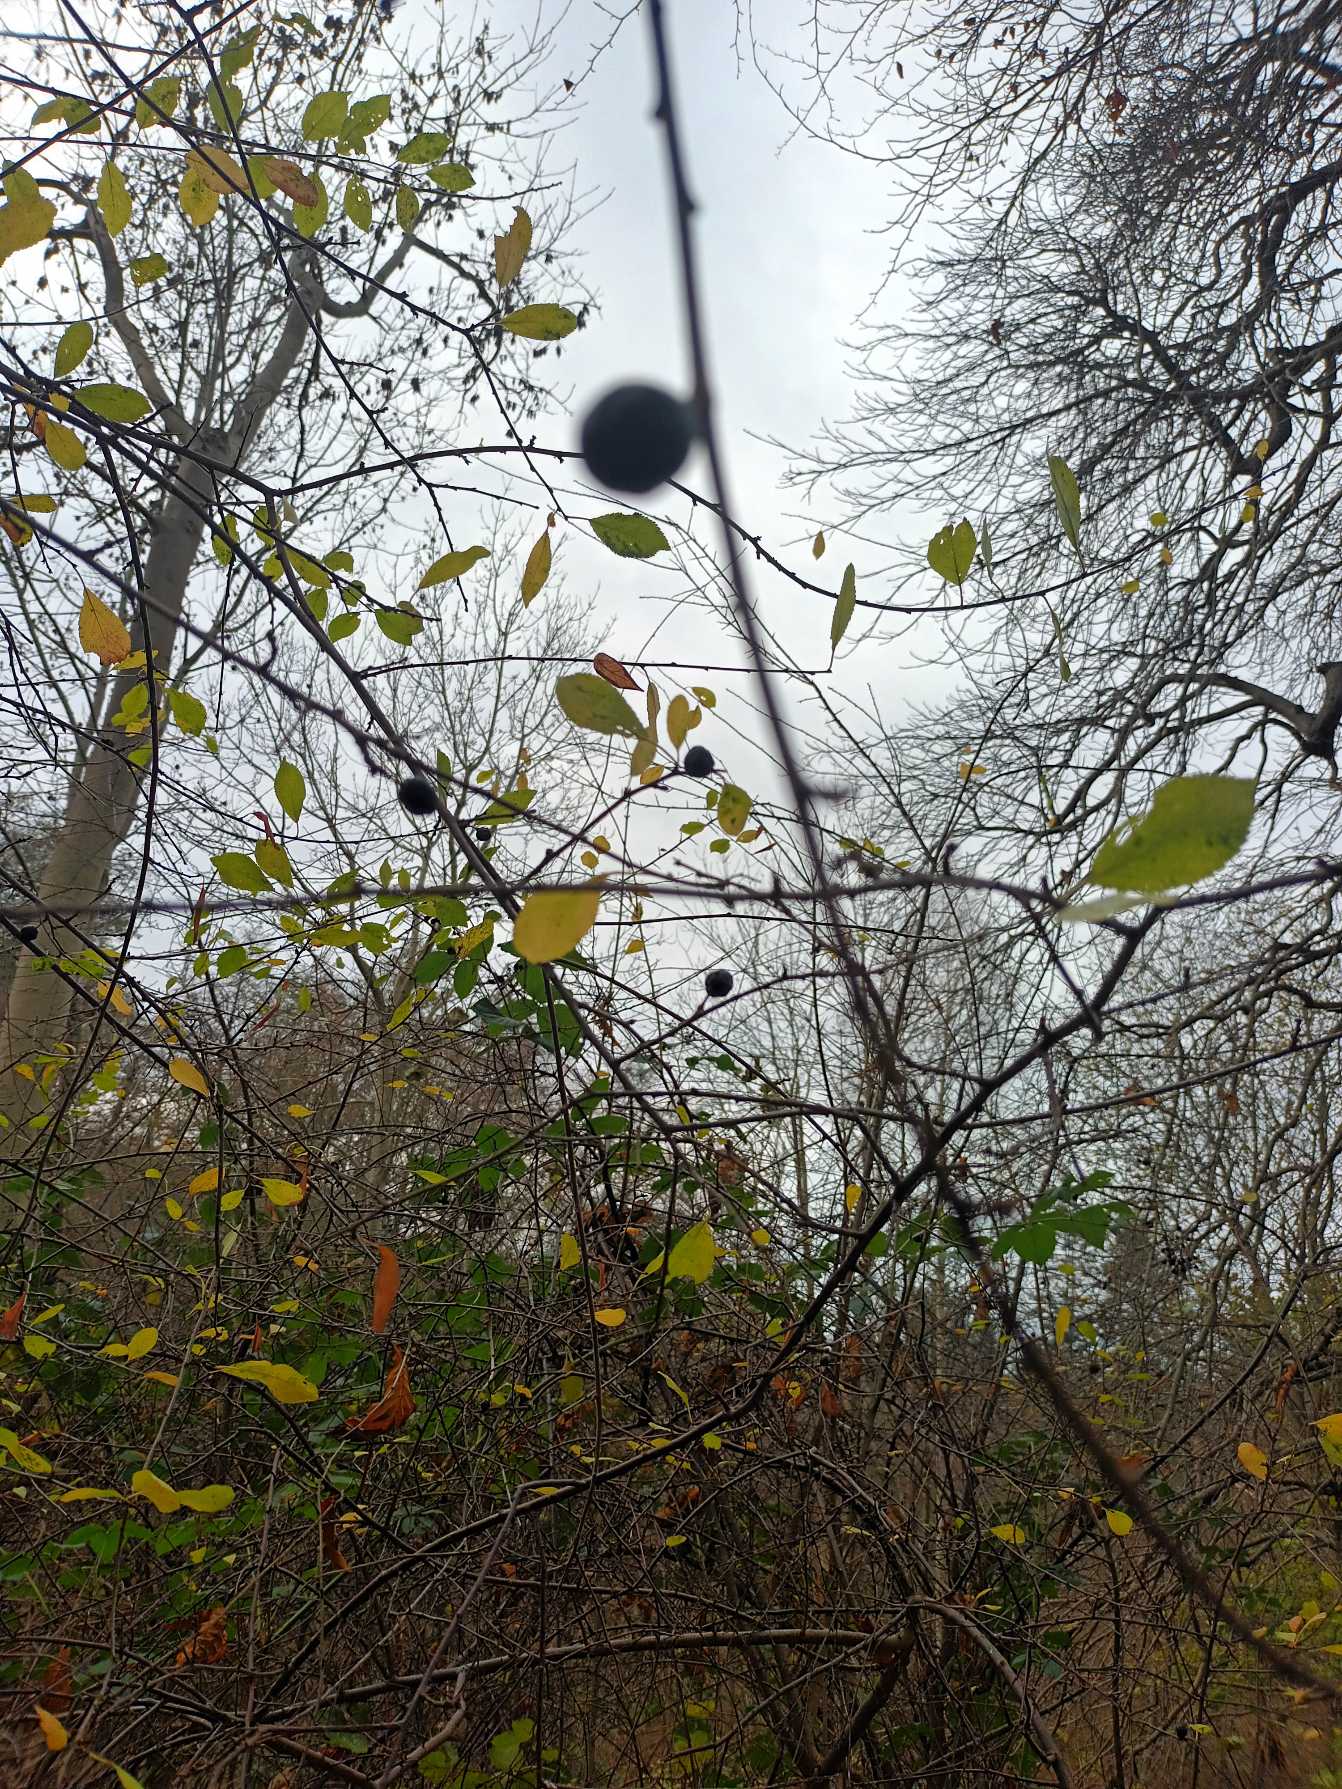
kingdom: Plantae
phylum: Tracheophyta
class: Magnoliopsida
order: Rosales
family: Rosaceae
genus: Prunus
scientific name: Prunus spinosa
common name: Slåen
